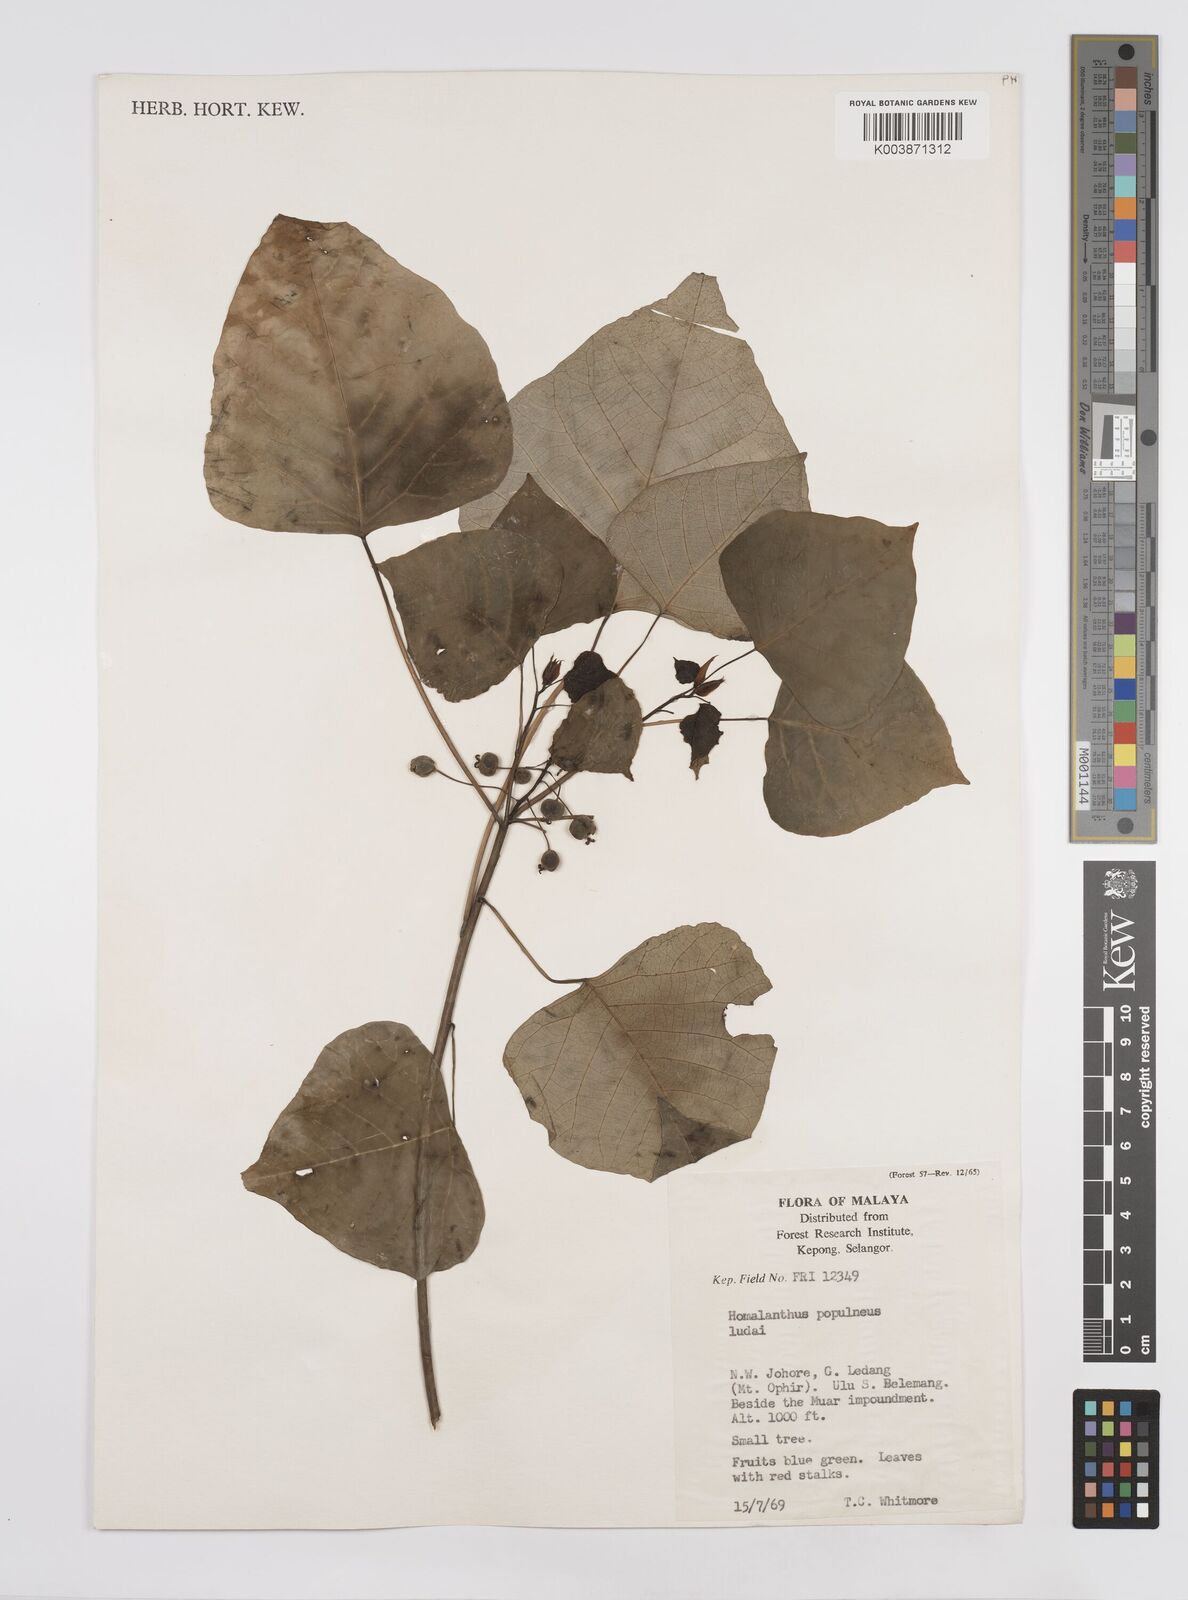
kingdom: Plantae
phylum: Tracheophyta
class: Magnoliopsida
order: Malpighiales
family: Euphorbiaceae
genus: Homalanthus
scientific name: Homalanthus populneus
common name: Spurge
